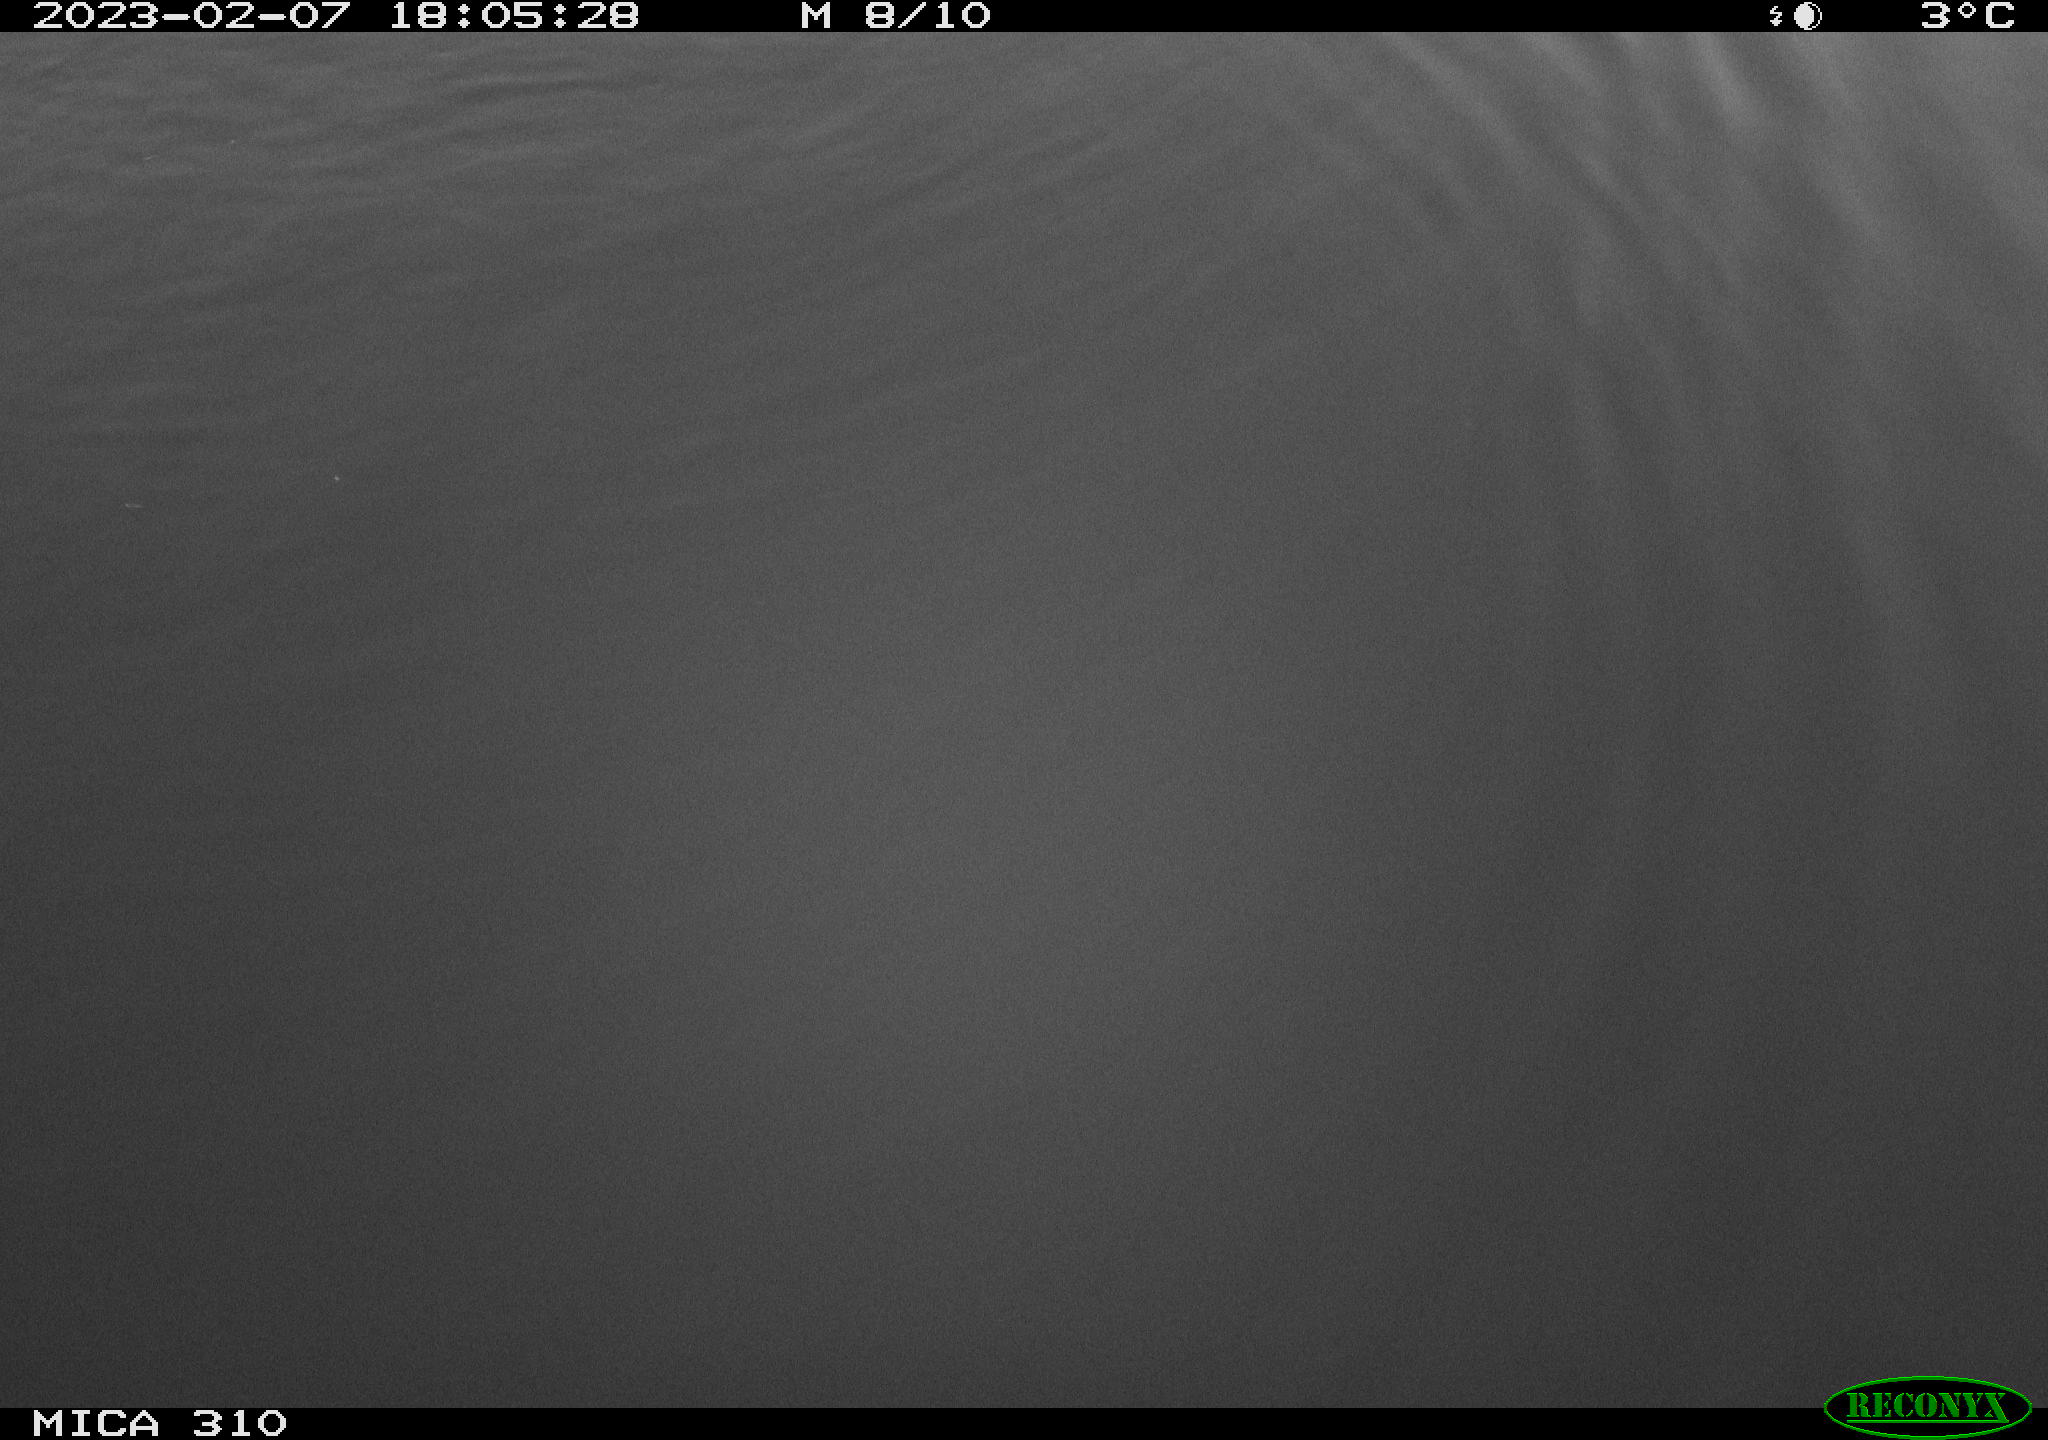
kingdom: Animalia
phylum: Chordata
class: Aves
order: Anseriformes
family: Anatidae
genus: Anas
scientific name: Anas
